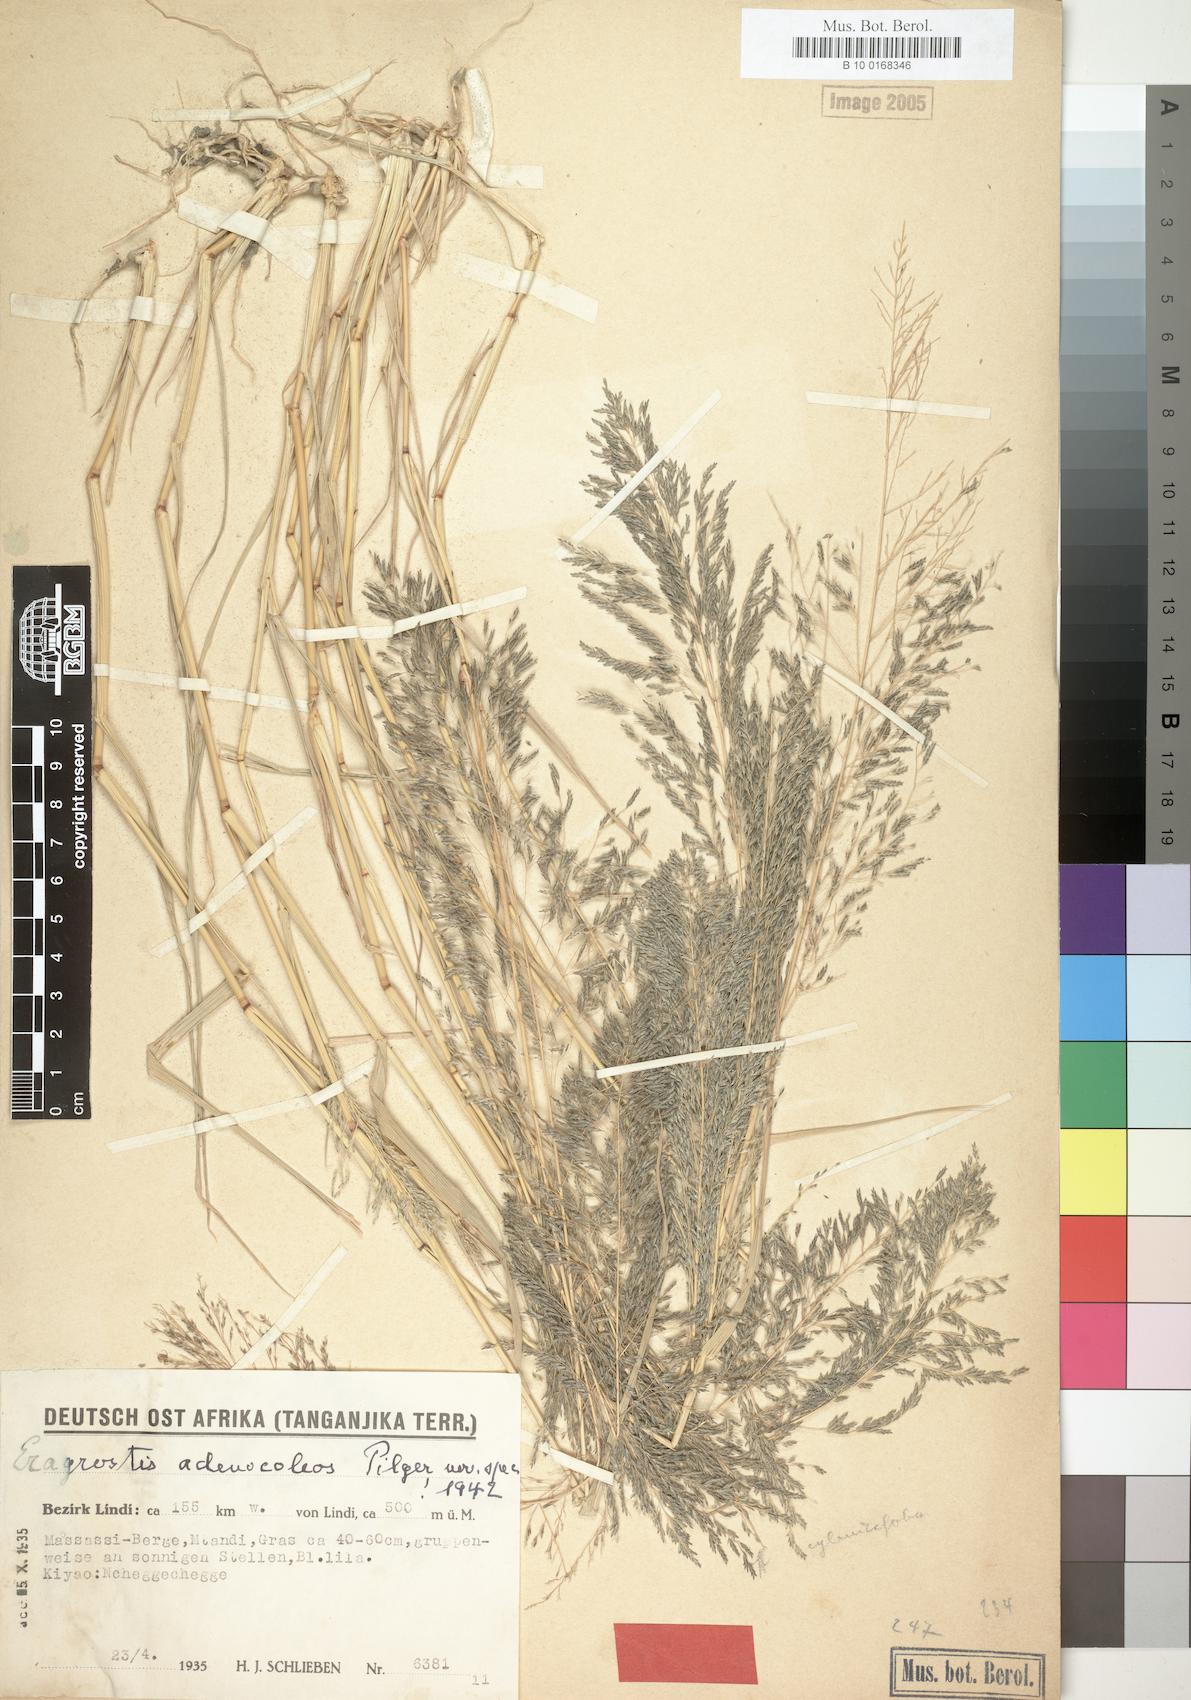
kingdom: Plantae
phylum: Tracheophyta
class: Liliopsida
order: Poales
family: Poaceae
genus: Eragrostis
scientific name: Eragrostis cylindriflora
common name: Cylinderflower lovegrass
